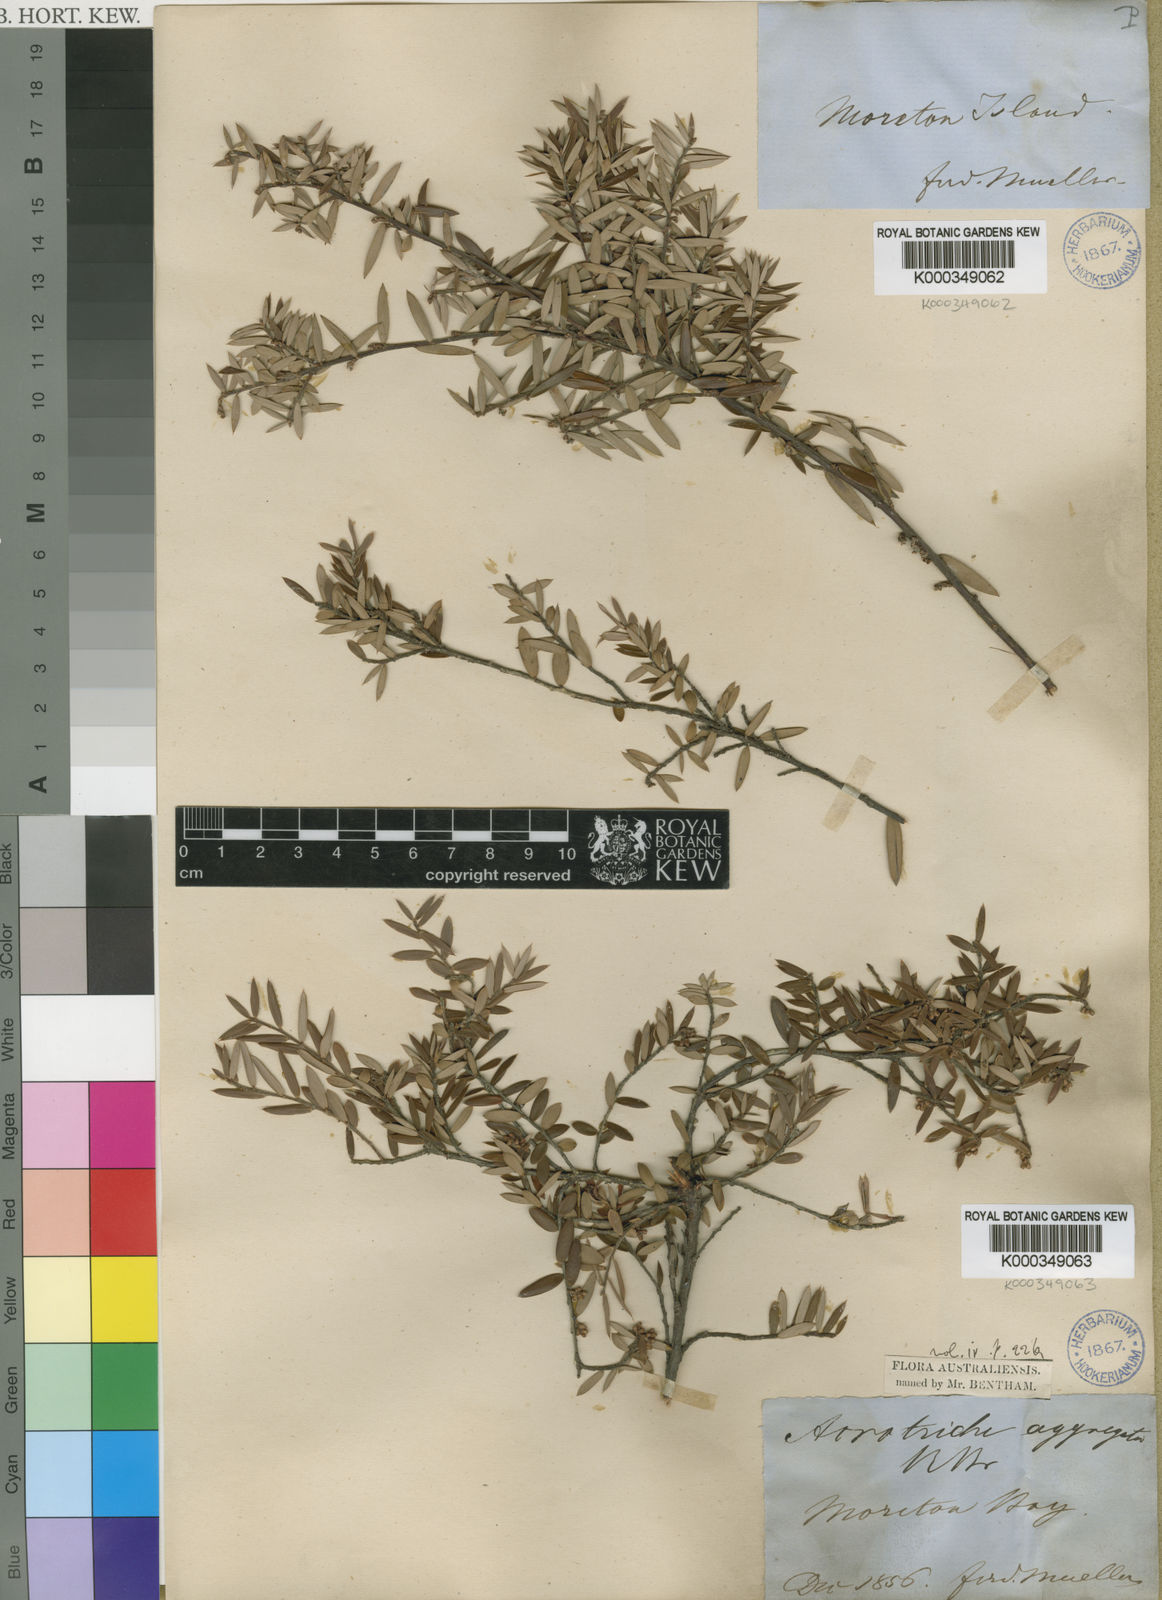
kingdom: Plantae
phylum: Tracheophyta
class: Magnoliopsida
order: Ericales
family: Ericaceae
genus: Acrotriche
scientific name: Acrotriche aggregata
